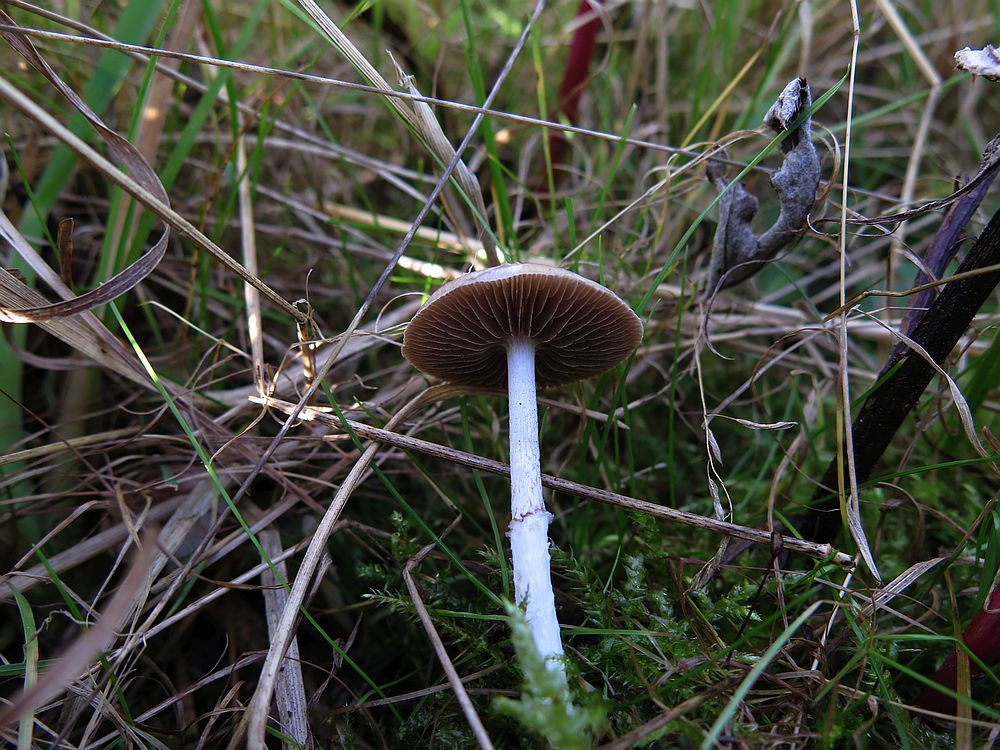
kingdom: Fungi
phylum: Basidiomycota
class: Agaricomycetes
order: Agaricales
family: Strophariaceae
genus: Stropharia
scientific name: Stropharia pseudocyanea
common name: blegblå bredblad
